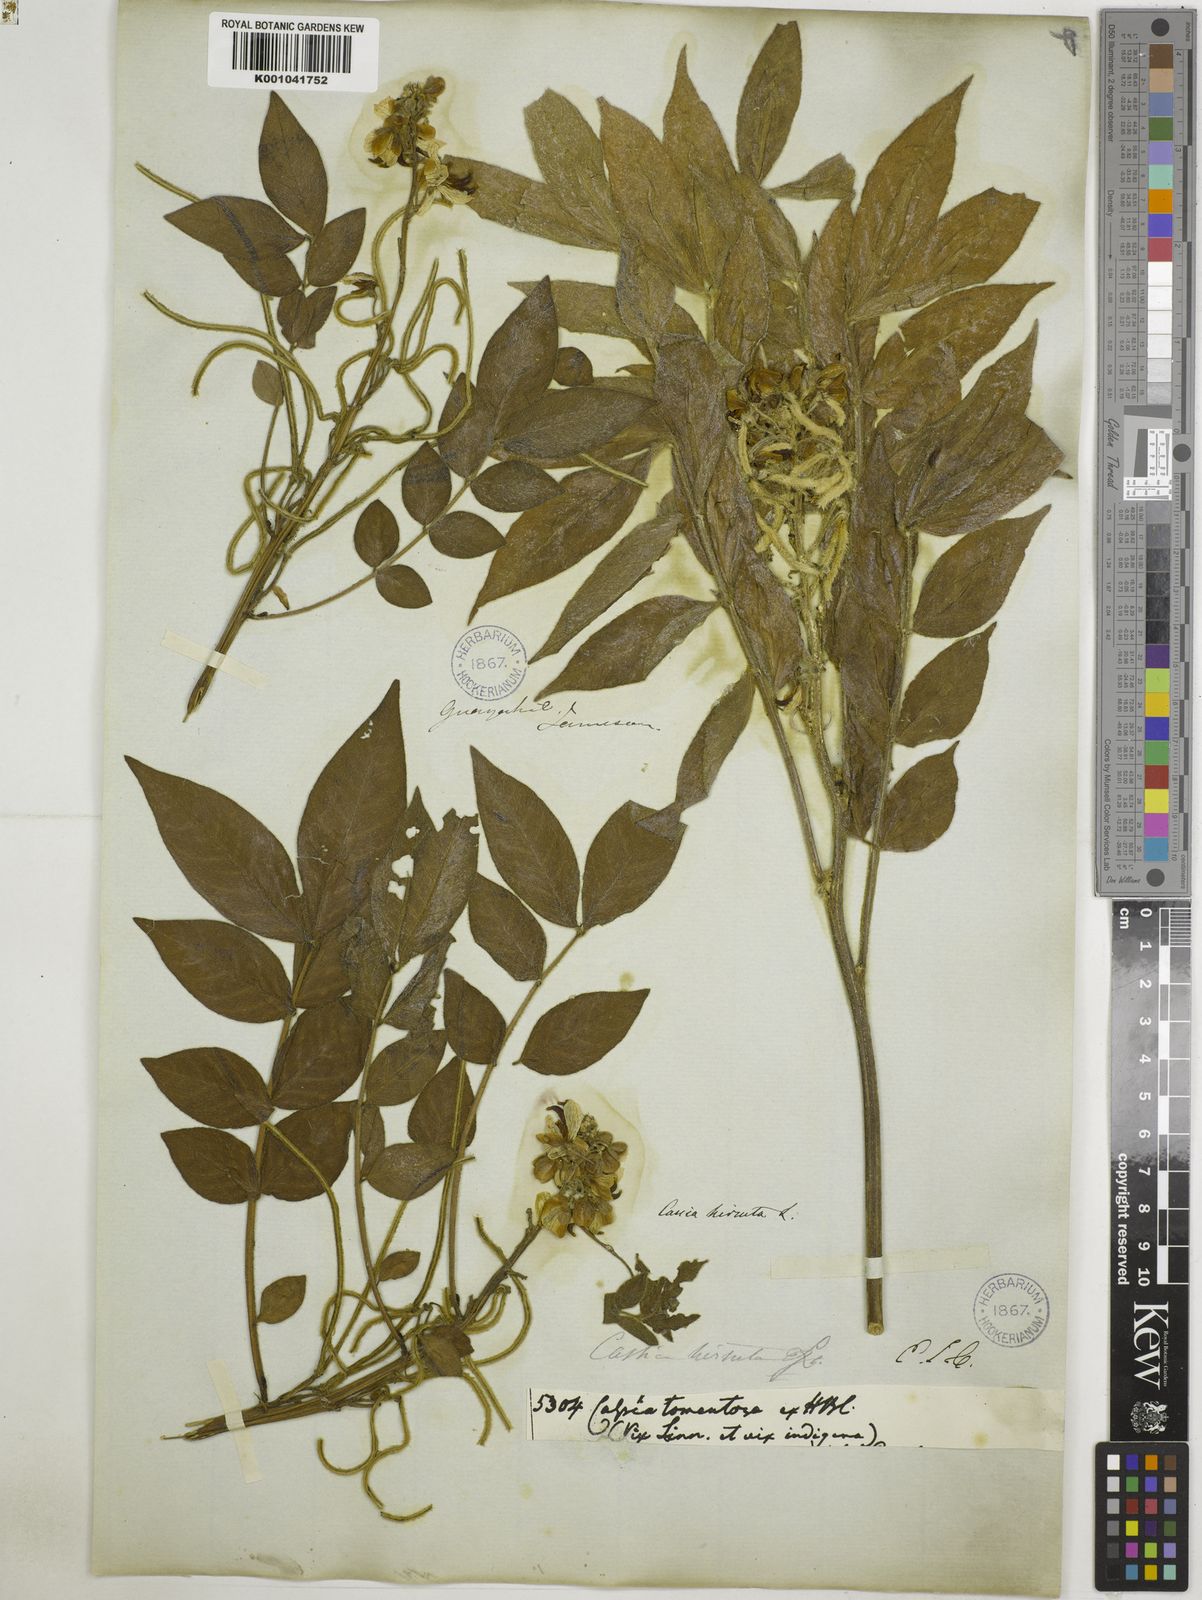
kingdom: Plantae
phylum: Tracheophyta
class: Magnoliopsida
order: Fabales
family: Fabaceae
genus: Senna
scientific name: Senna hirsuta
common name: Woolly senna
